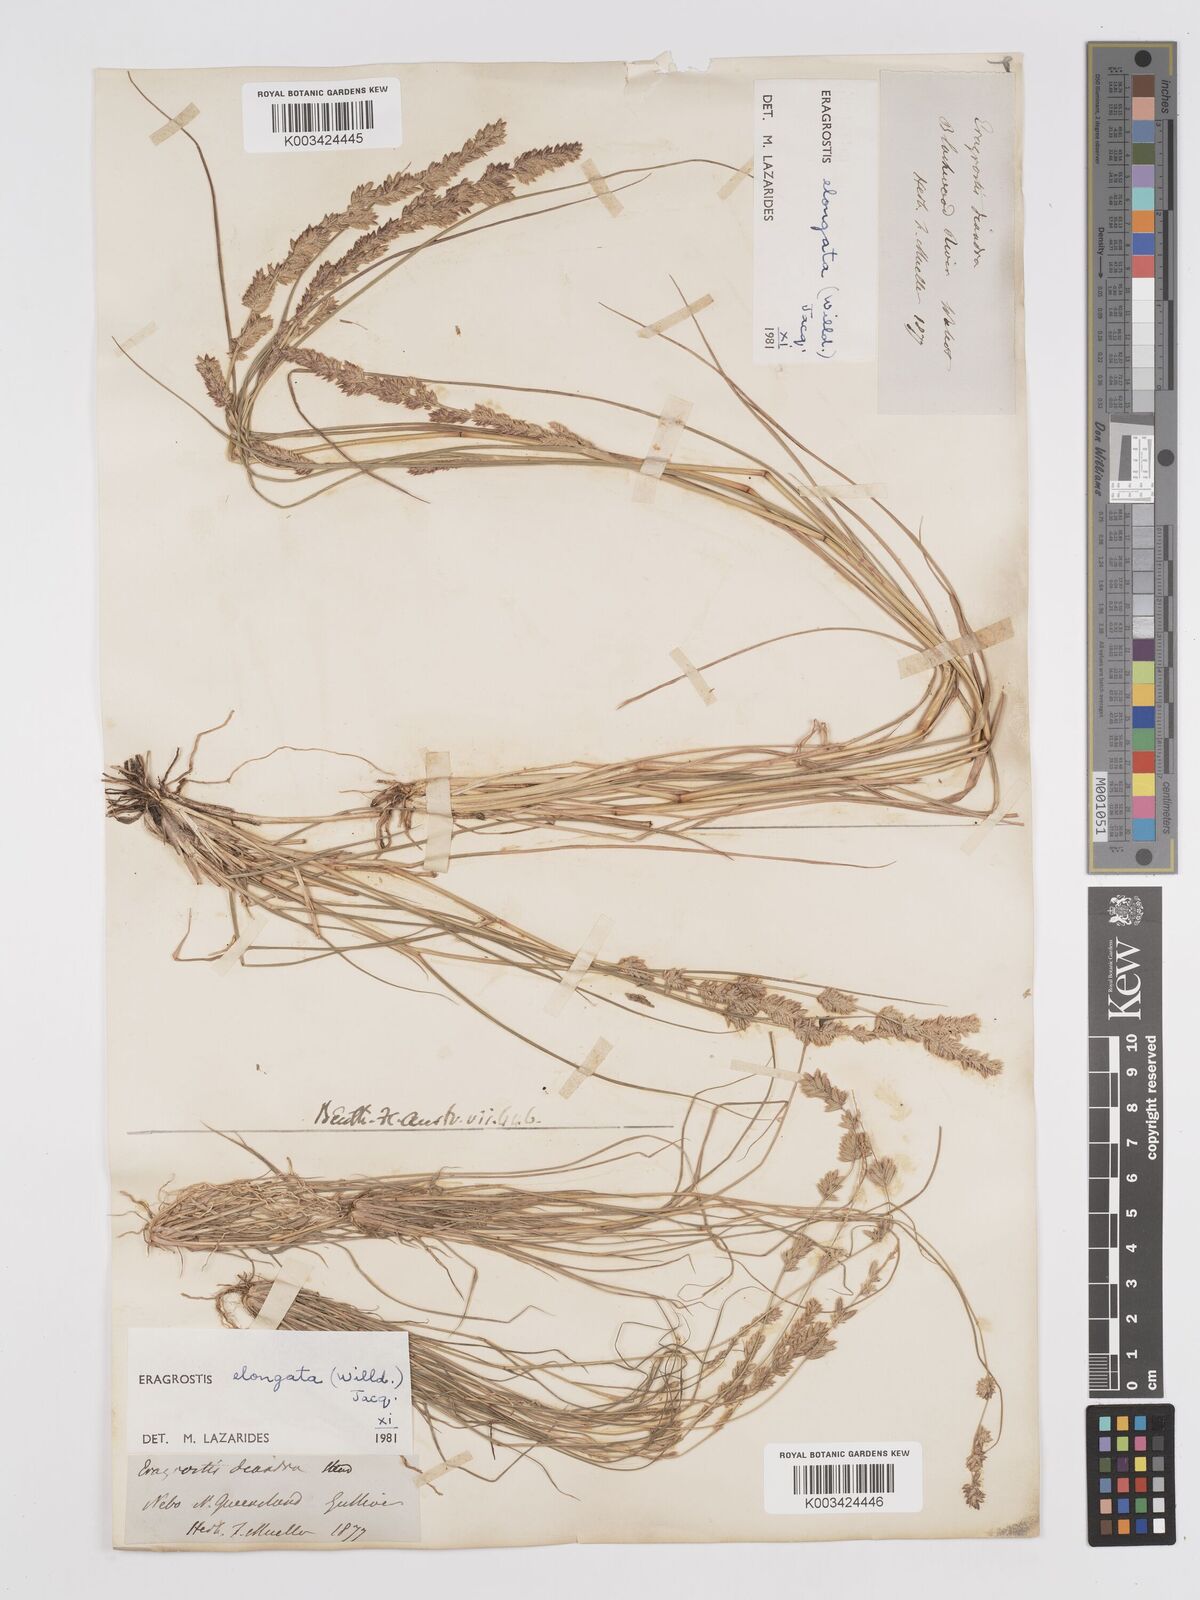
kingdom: Plantae
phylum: Tracheophyta
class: Liliopsida
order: Poales
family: Poaceae
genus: Eragrostis
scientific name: Eragrostis elongata
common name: Long lovegrass
